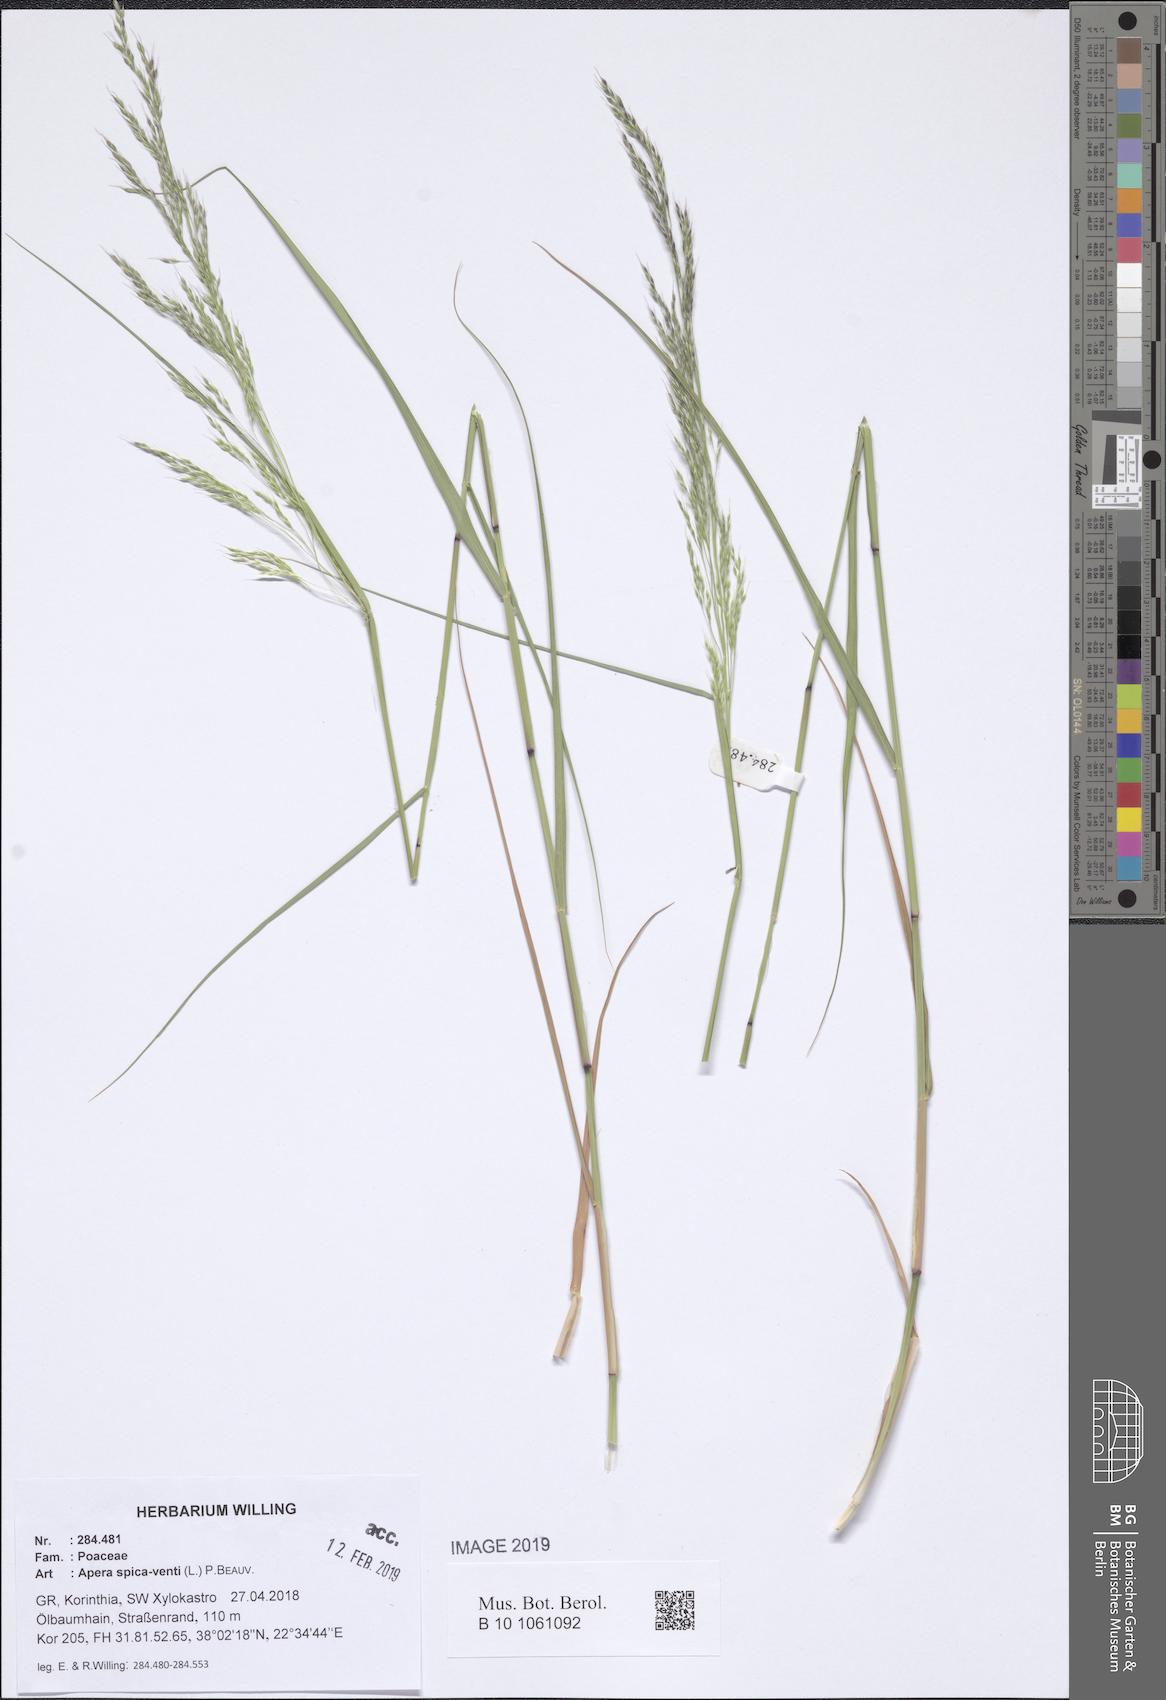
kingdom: Plantae
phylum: Tracheophyta
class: Liliopsida
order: Poales
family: Poaceae
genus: Apera
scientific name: Apera spica-venti
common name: Loose silky-bent
